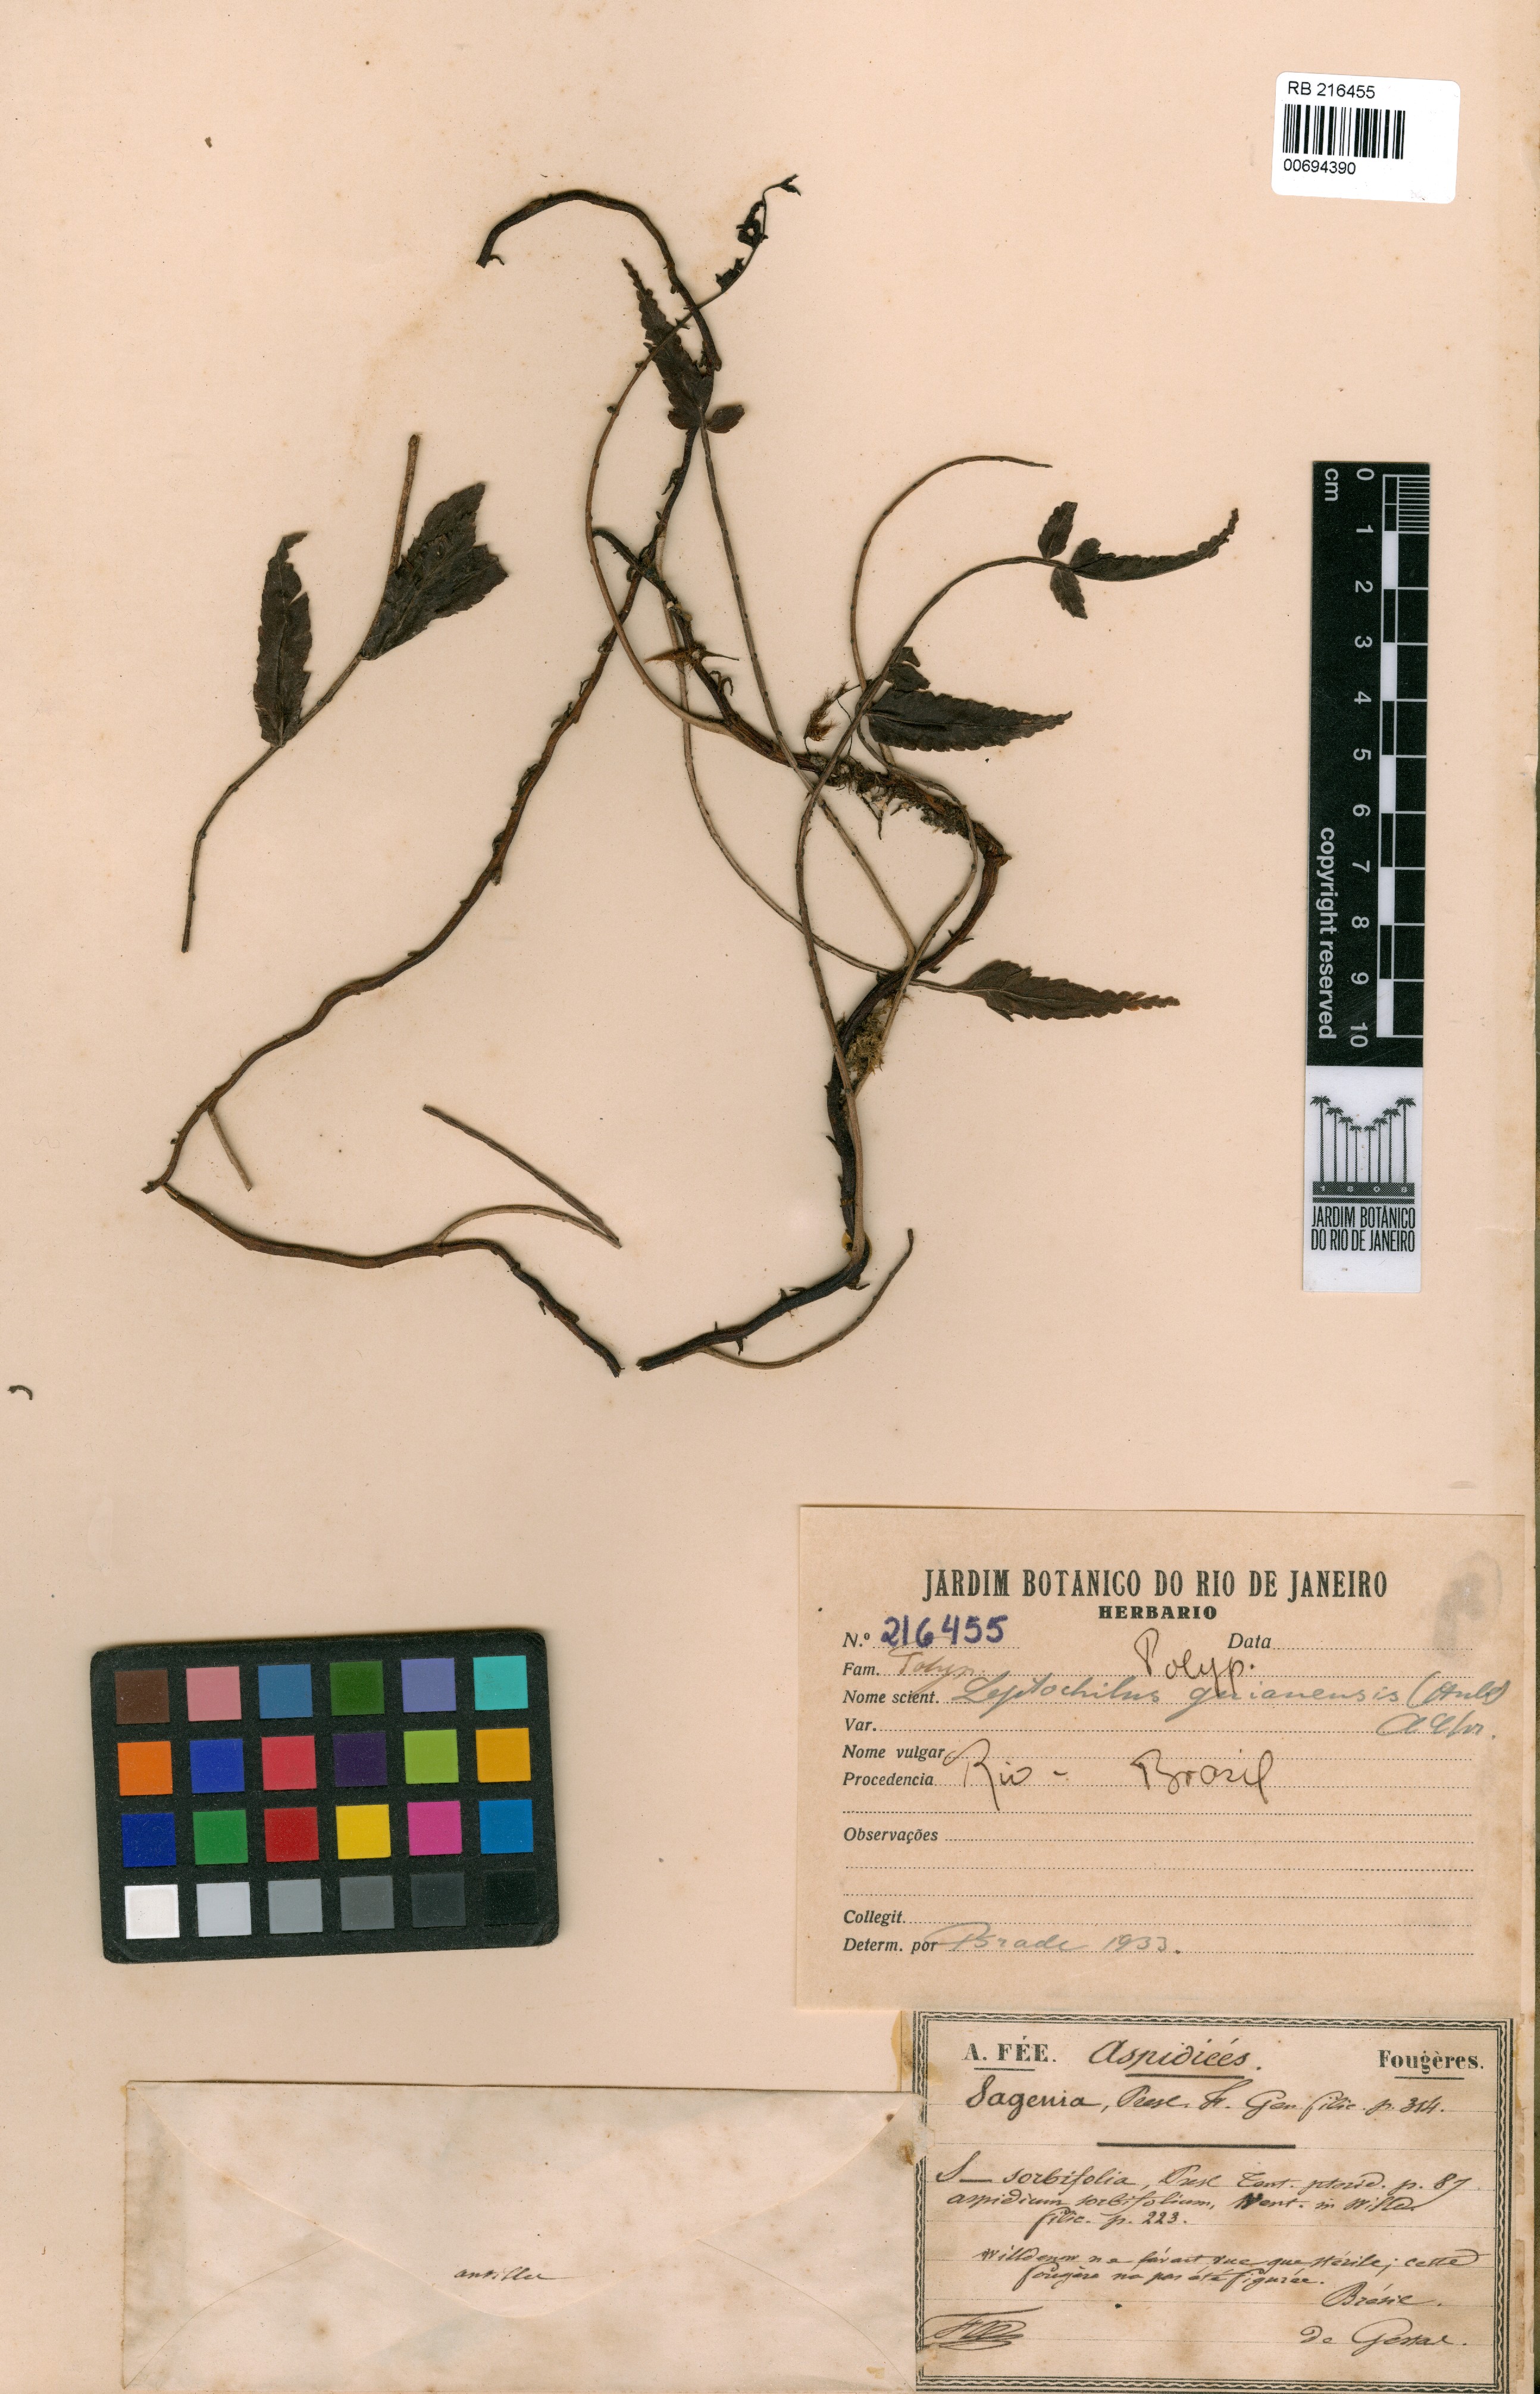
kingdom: Plantae
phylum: Tracheophyta
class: Polypodiopsida
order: Polypodiales
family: Dryopteridaceae
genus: Mickelia
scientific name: Mickelia guianensis
